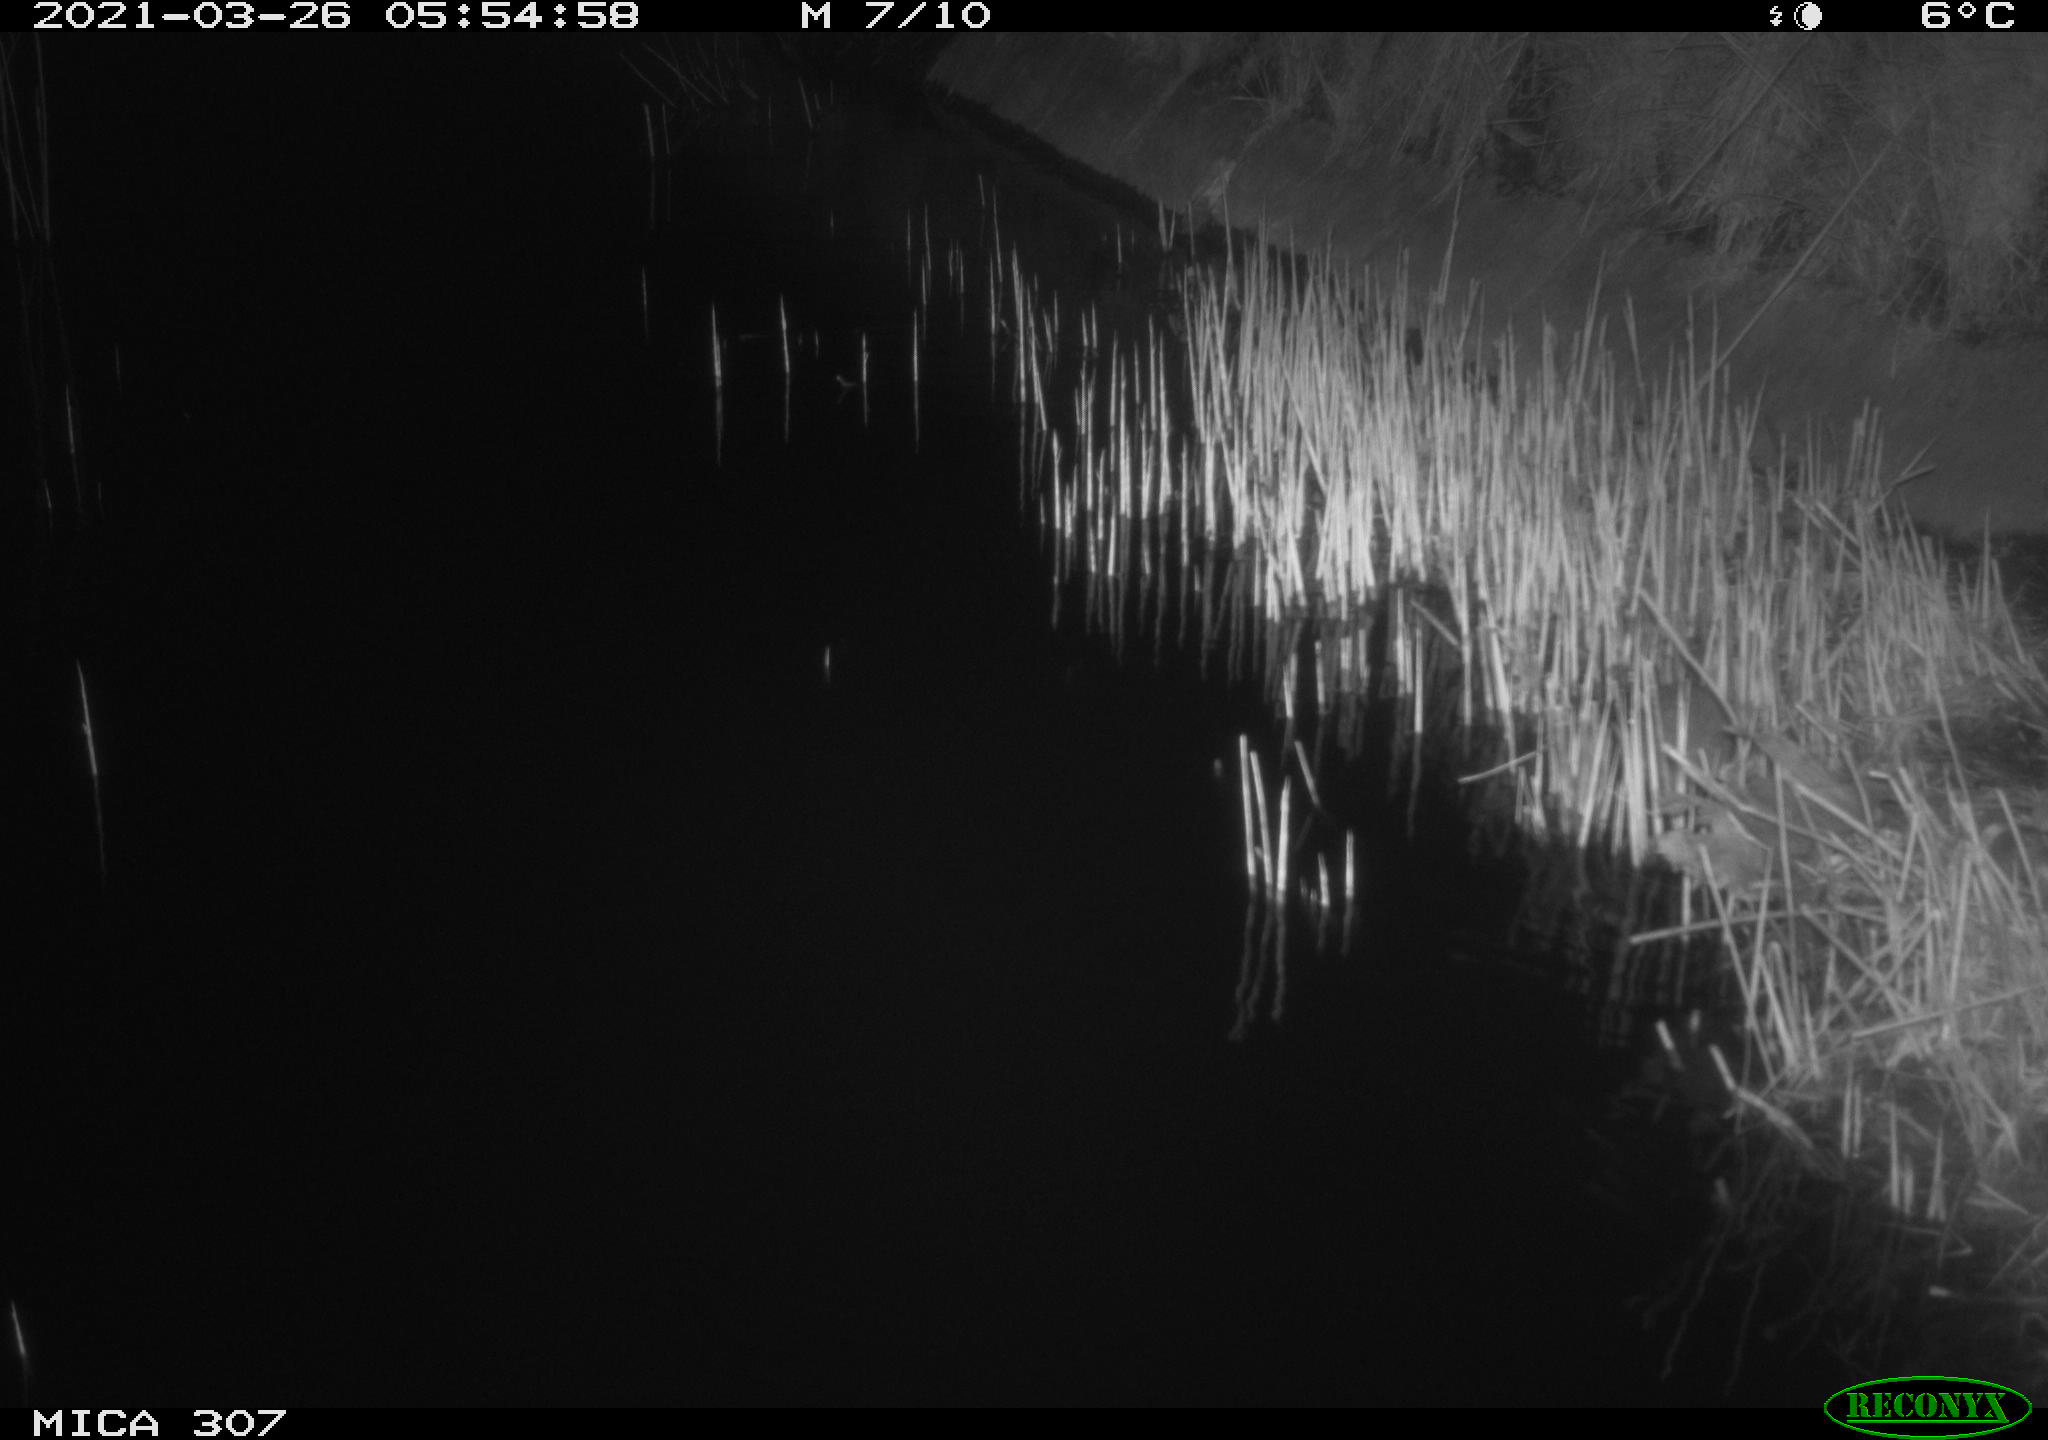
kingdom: Animalia
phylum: Chordata
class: Mammalia
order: Rodentia
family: Muridae
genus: Rattus
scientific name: Rattus norvegicus
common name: Brown rat
